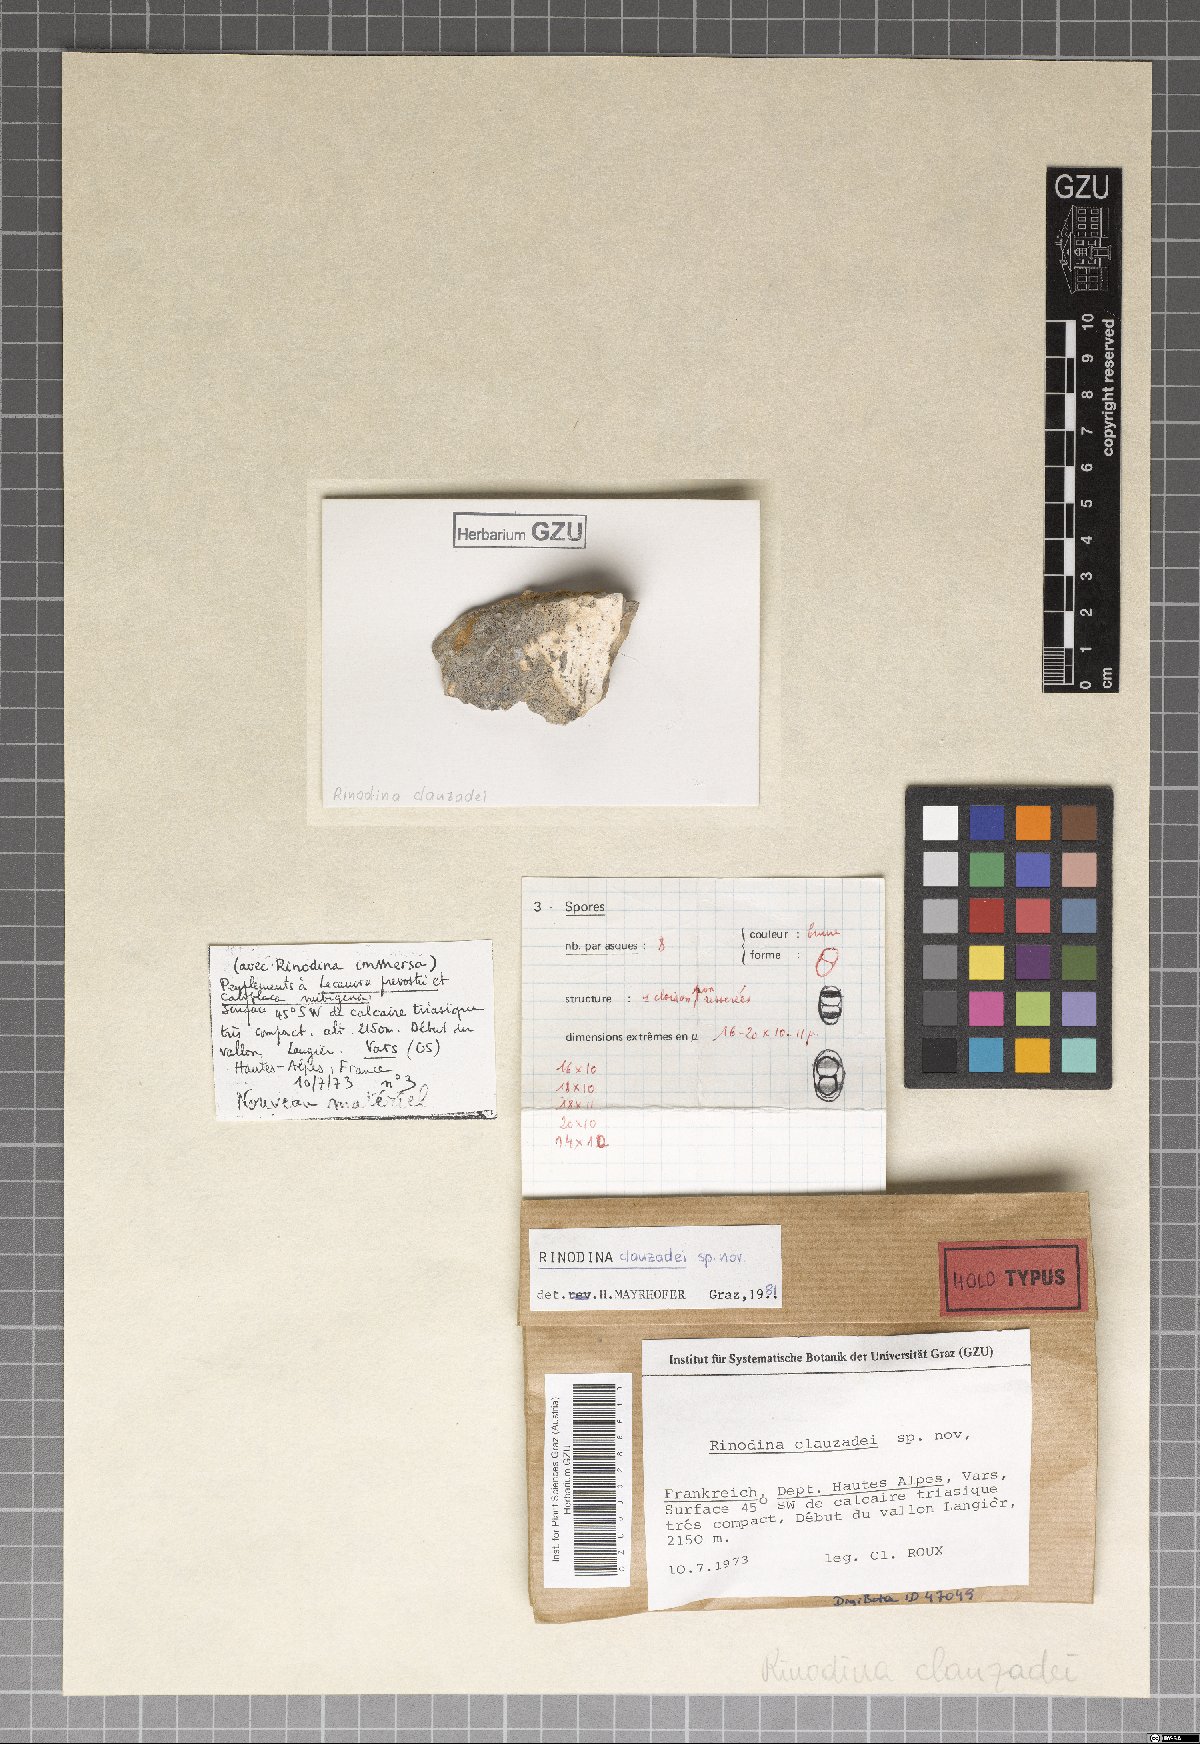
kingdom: Fungi
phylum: Ascomycota
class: Lecanoromycetes
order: Caliciales
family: Physciaceae
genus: Rinodina
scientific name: Rinodina clauzadei
